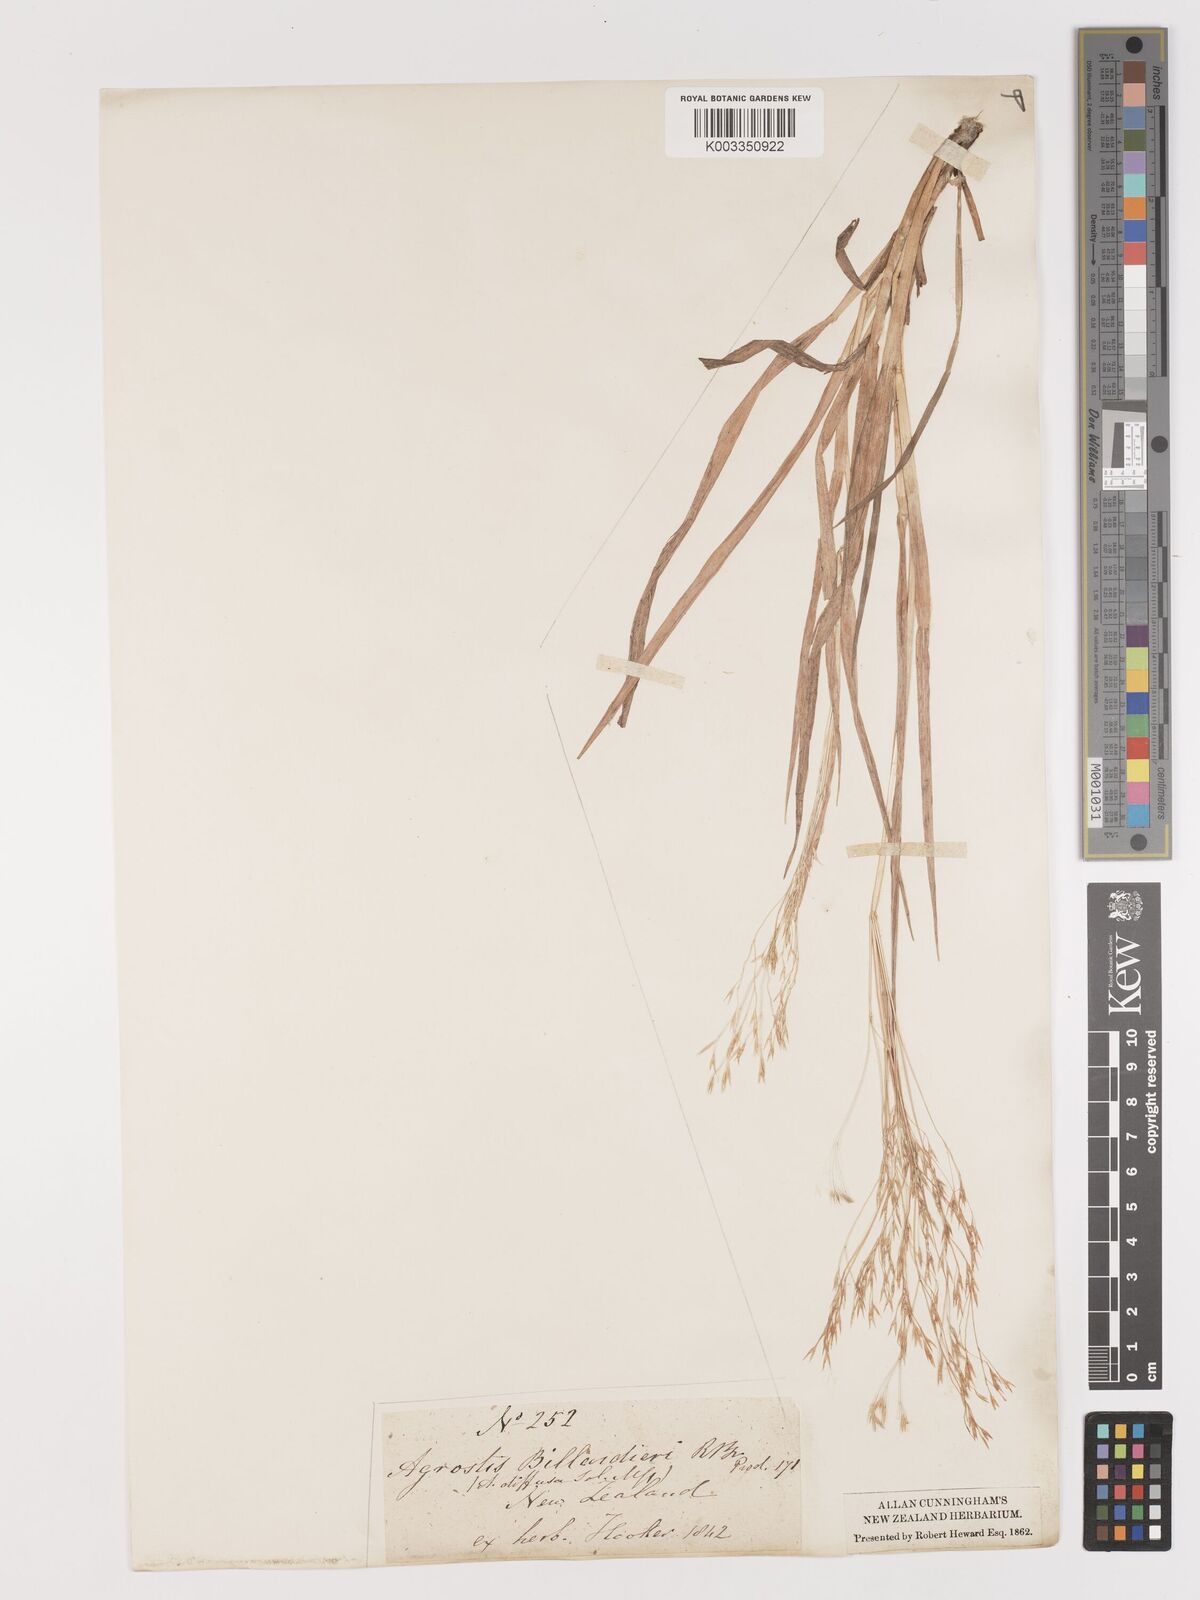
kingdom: Plantae
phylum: Tracheophyta
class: Liliopsida
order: Poales
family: Poaceae
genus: Lachnagrostis
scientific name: Lachnagrostis pilosa
